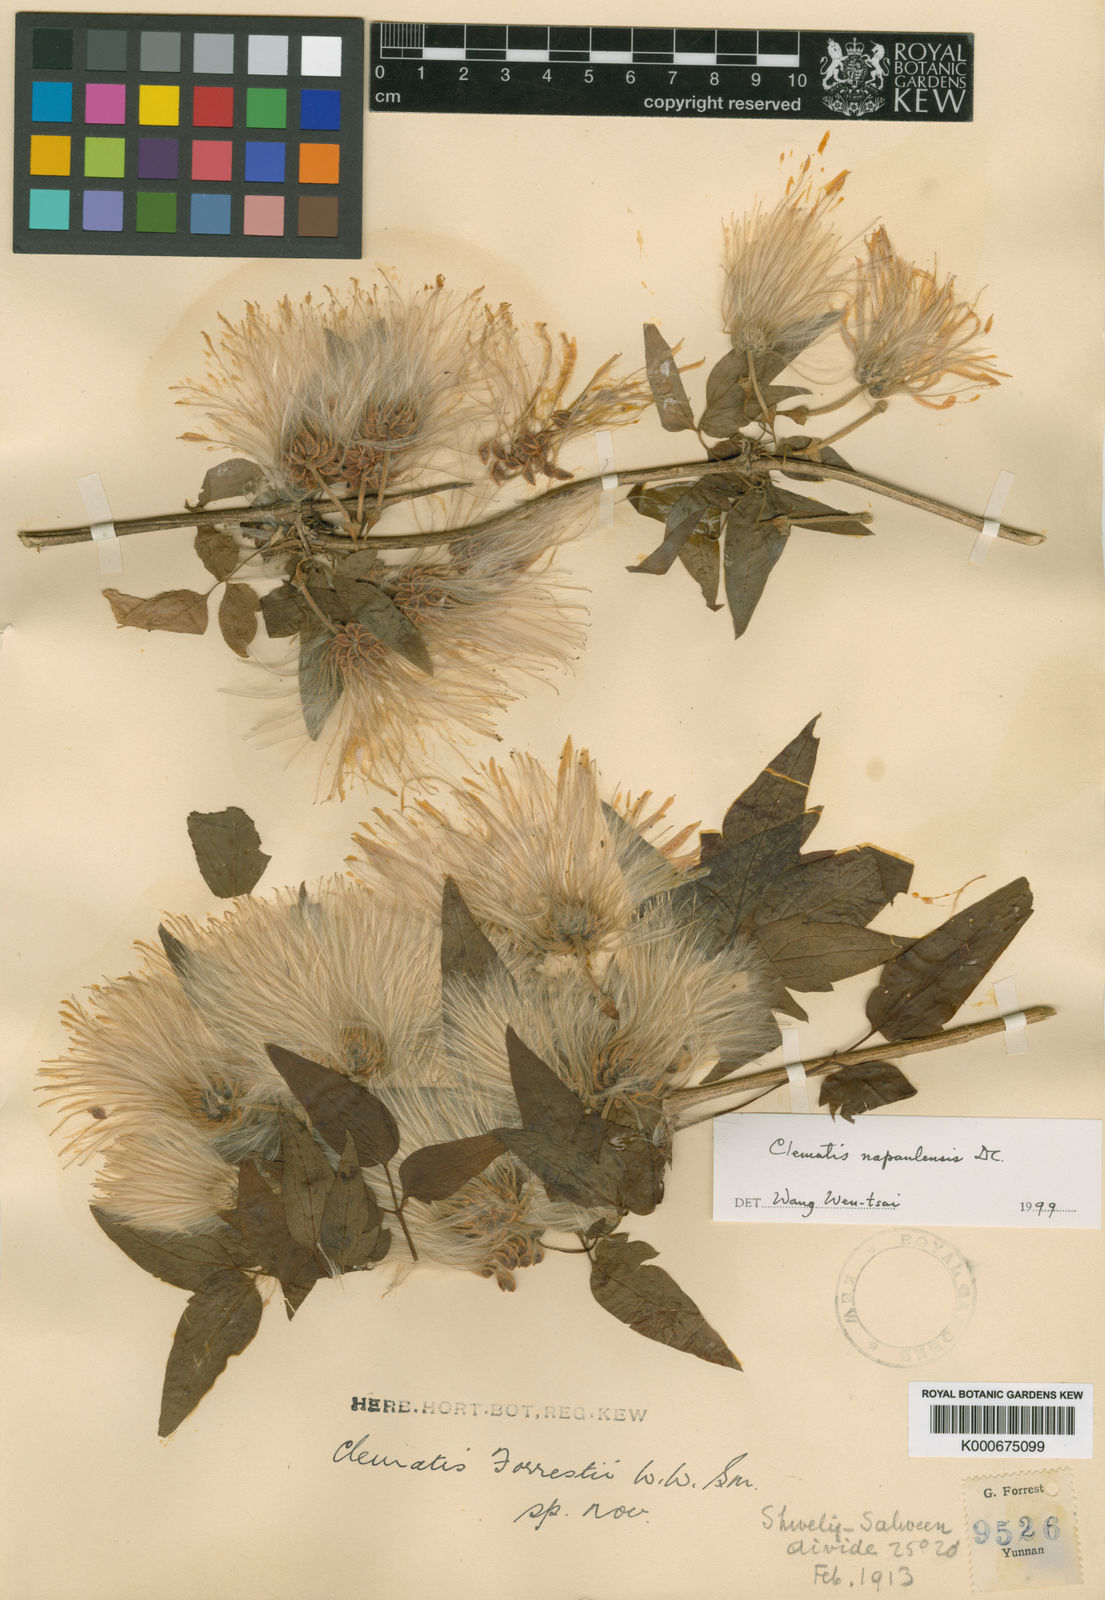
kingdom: Plantae
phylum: Tracheophyta
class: Magnoliopsida
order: Ranunculales
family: Ranunculaceae
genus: Clematis
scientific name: Clematis napaulensis
